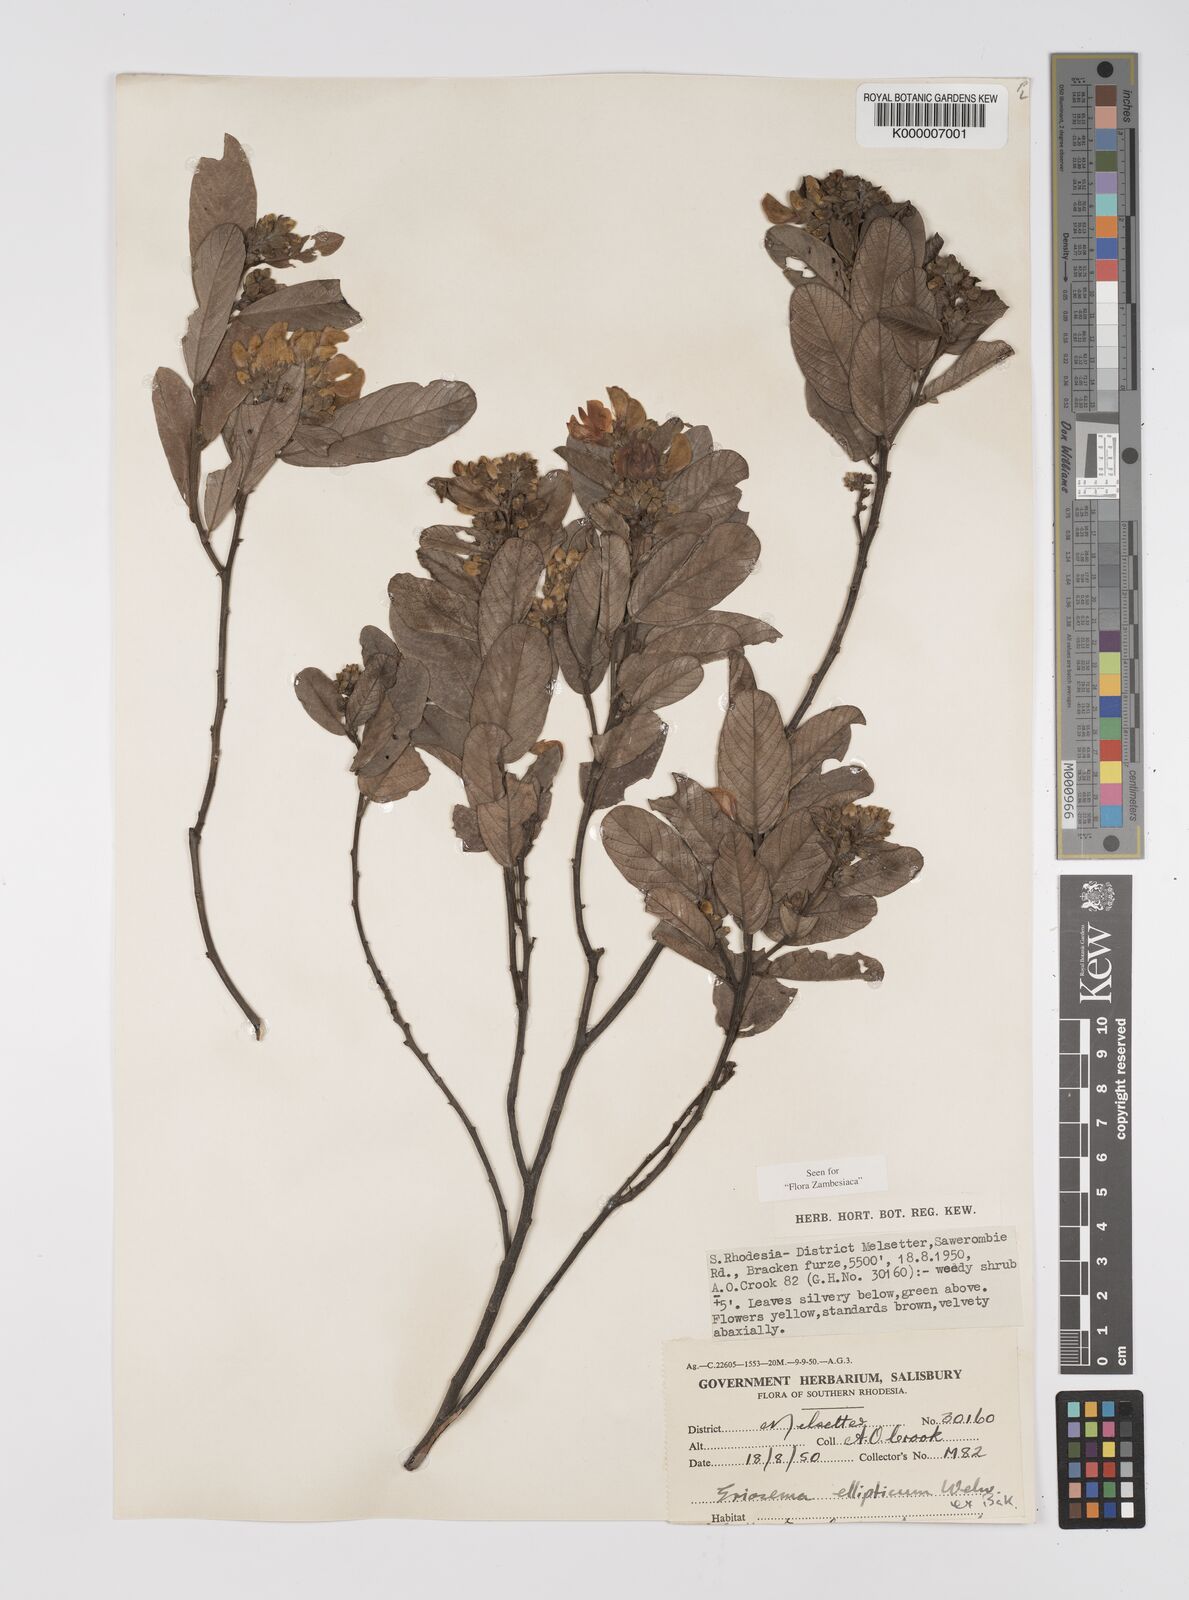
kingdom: Plantae
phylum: Tracheophyta
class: Magnoliopsida
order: Fabales
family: Fabaceae
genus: Eriosema
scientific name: Eriosema ellipticum
